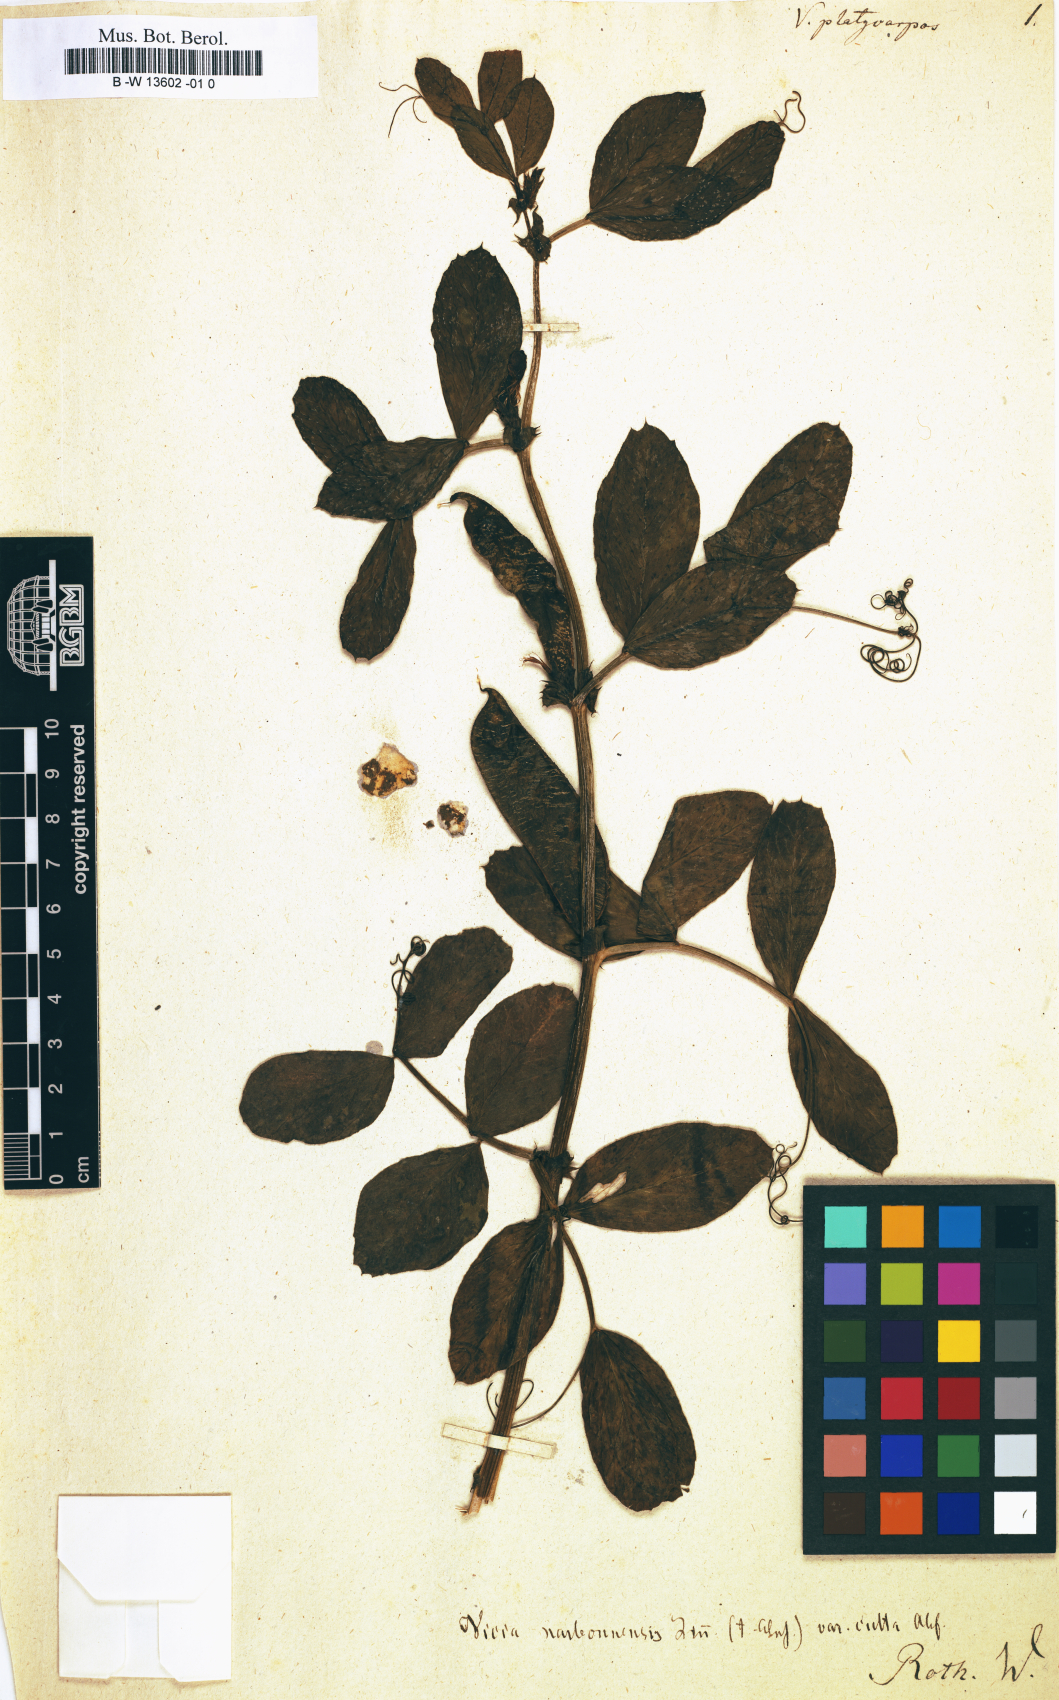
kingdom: Plantae
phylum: Tracheophyta
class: Magnoliopsida
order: Fabales
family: Fabaceae
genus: Vicia
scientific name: Vicia narbonensis
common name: Narbonne vetch
